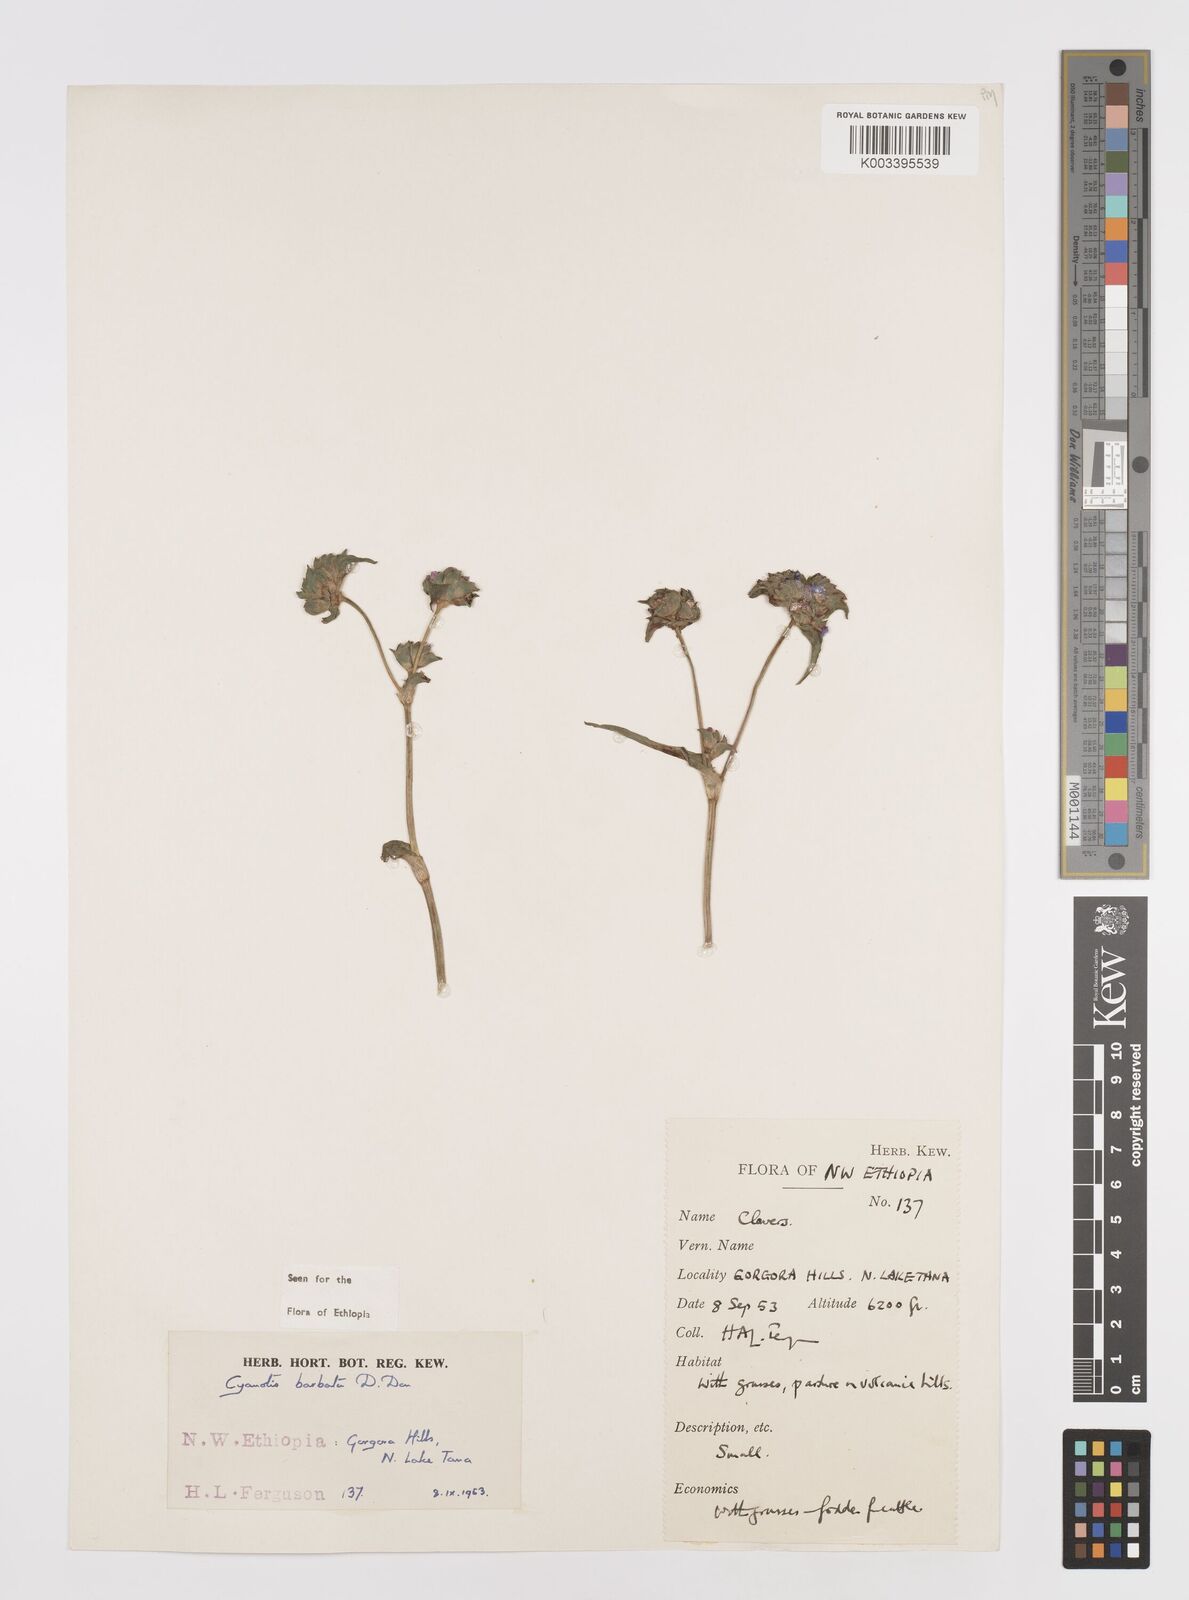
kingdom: Plantae
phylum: Tracheophyta
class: Liliopsida
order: Commelinales
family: Commelinaceae
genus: Cyanotis
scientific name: Cyanotis vaga
